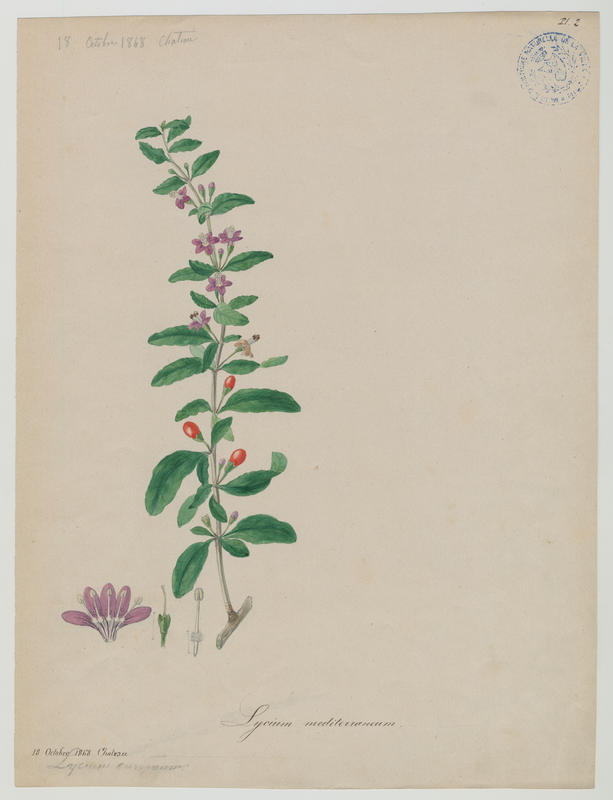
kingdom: Plantae
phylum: Tracheophyta
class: Magnoliopsida
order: Solanales
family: Solanaceae
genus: Lycium
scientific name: Lycium europaeum
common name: Boxthorn
